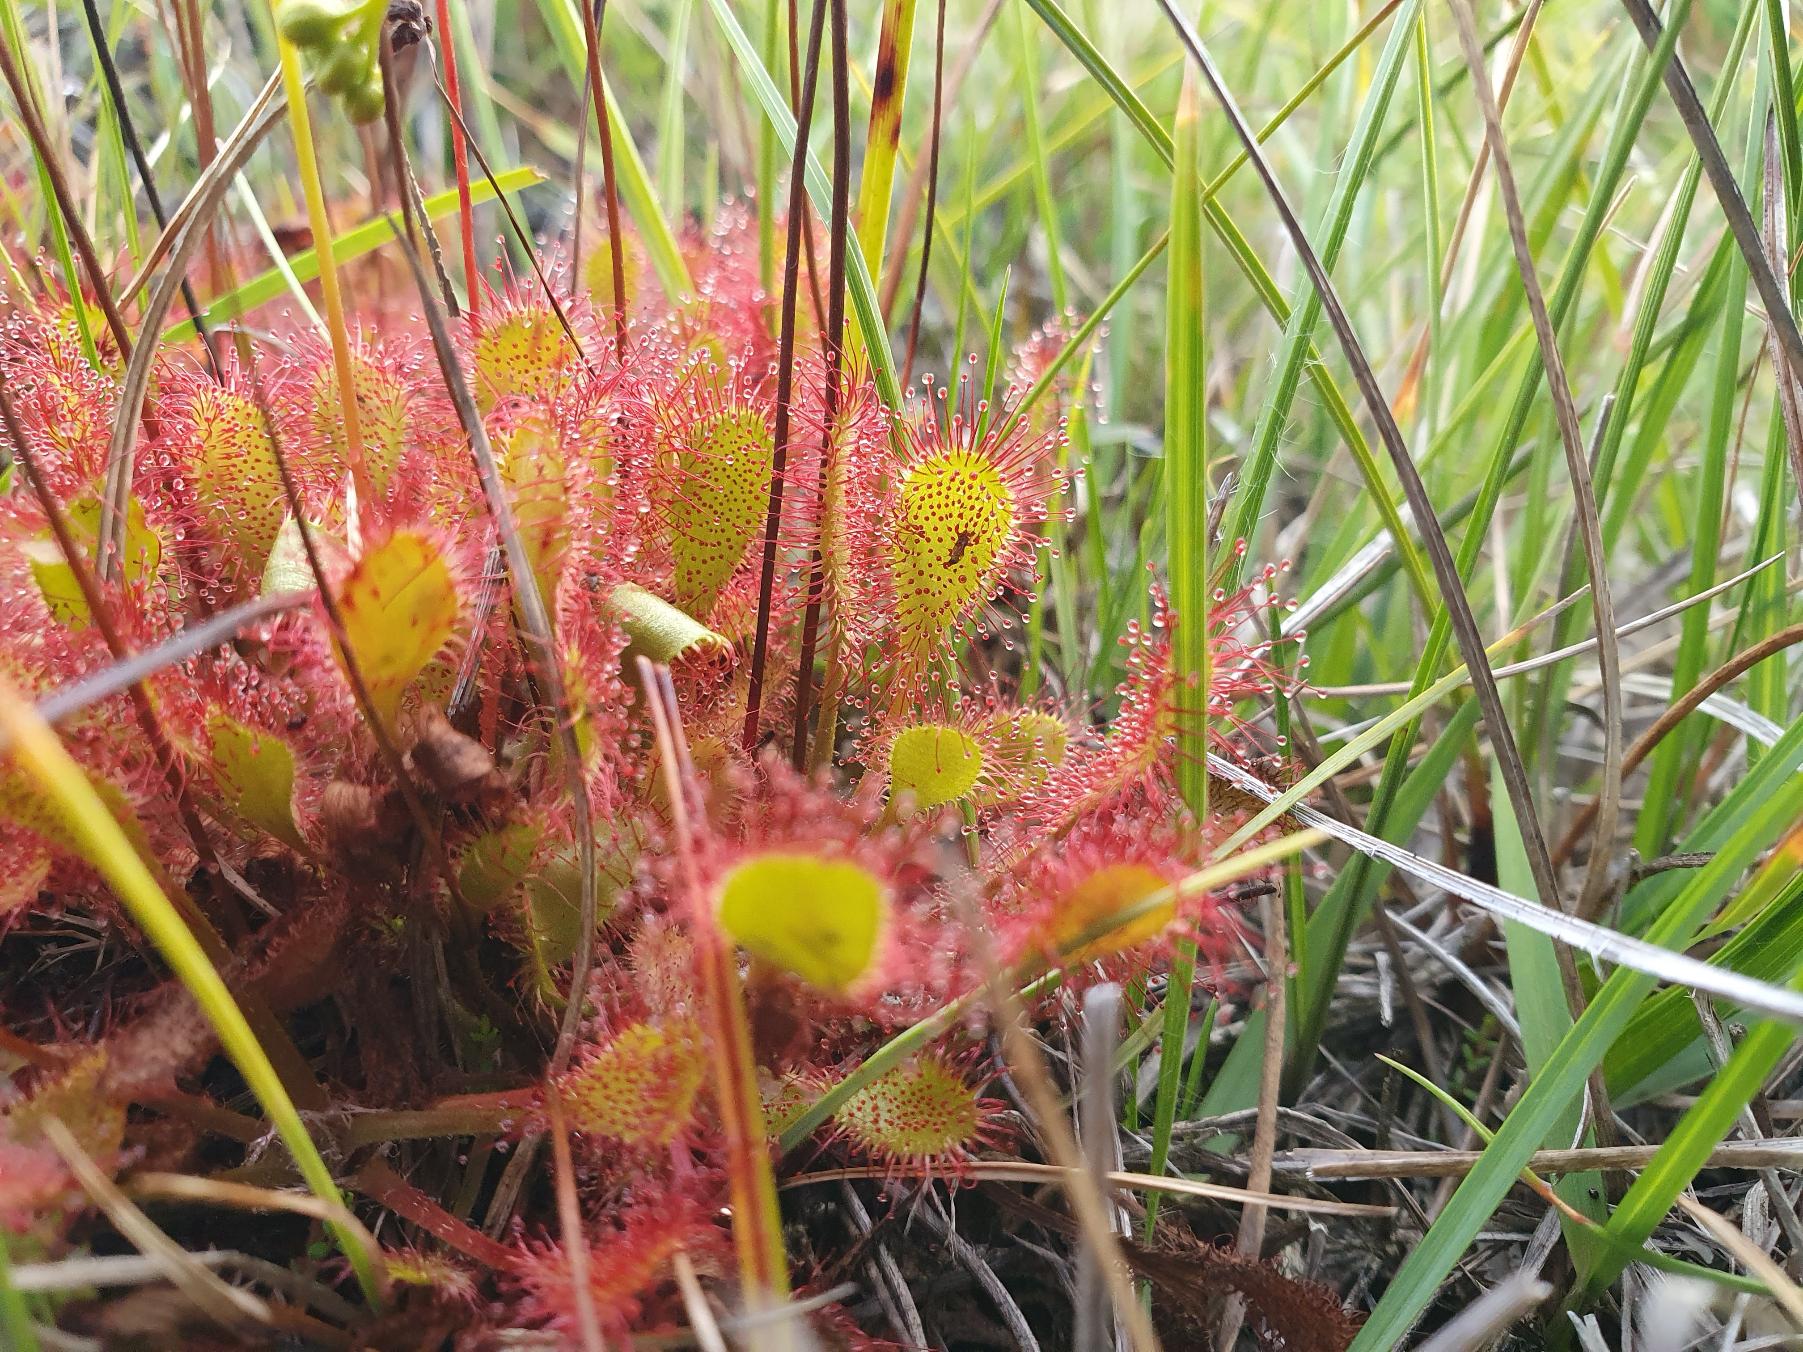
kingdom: Plantae
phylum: Tracheophyta
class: Magnoliopsida
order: Caryophyllales
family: Droseraceae
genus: Drosera
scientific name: Drosera
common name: Langbladet soldug × rundbladet soldug
